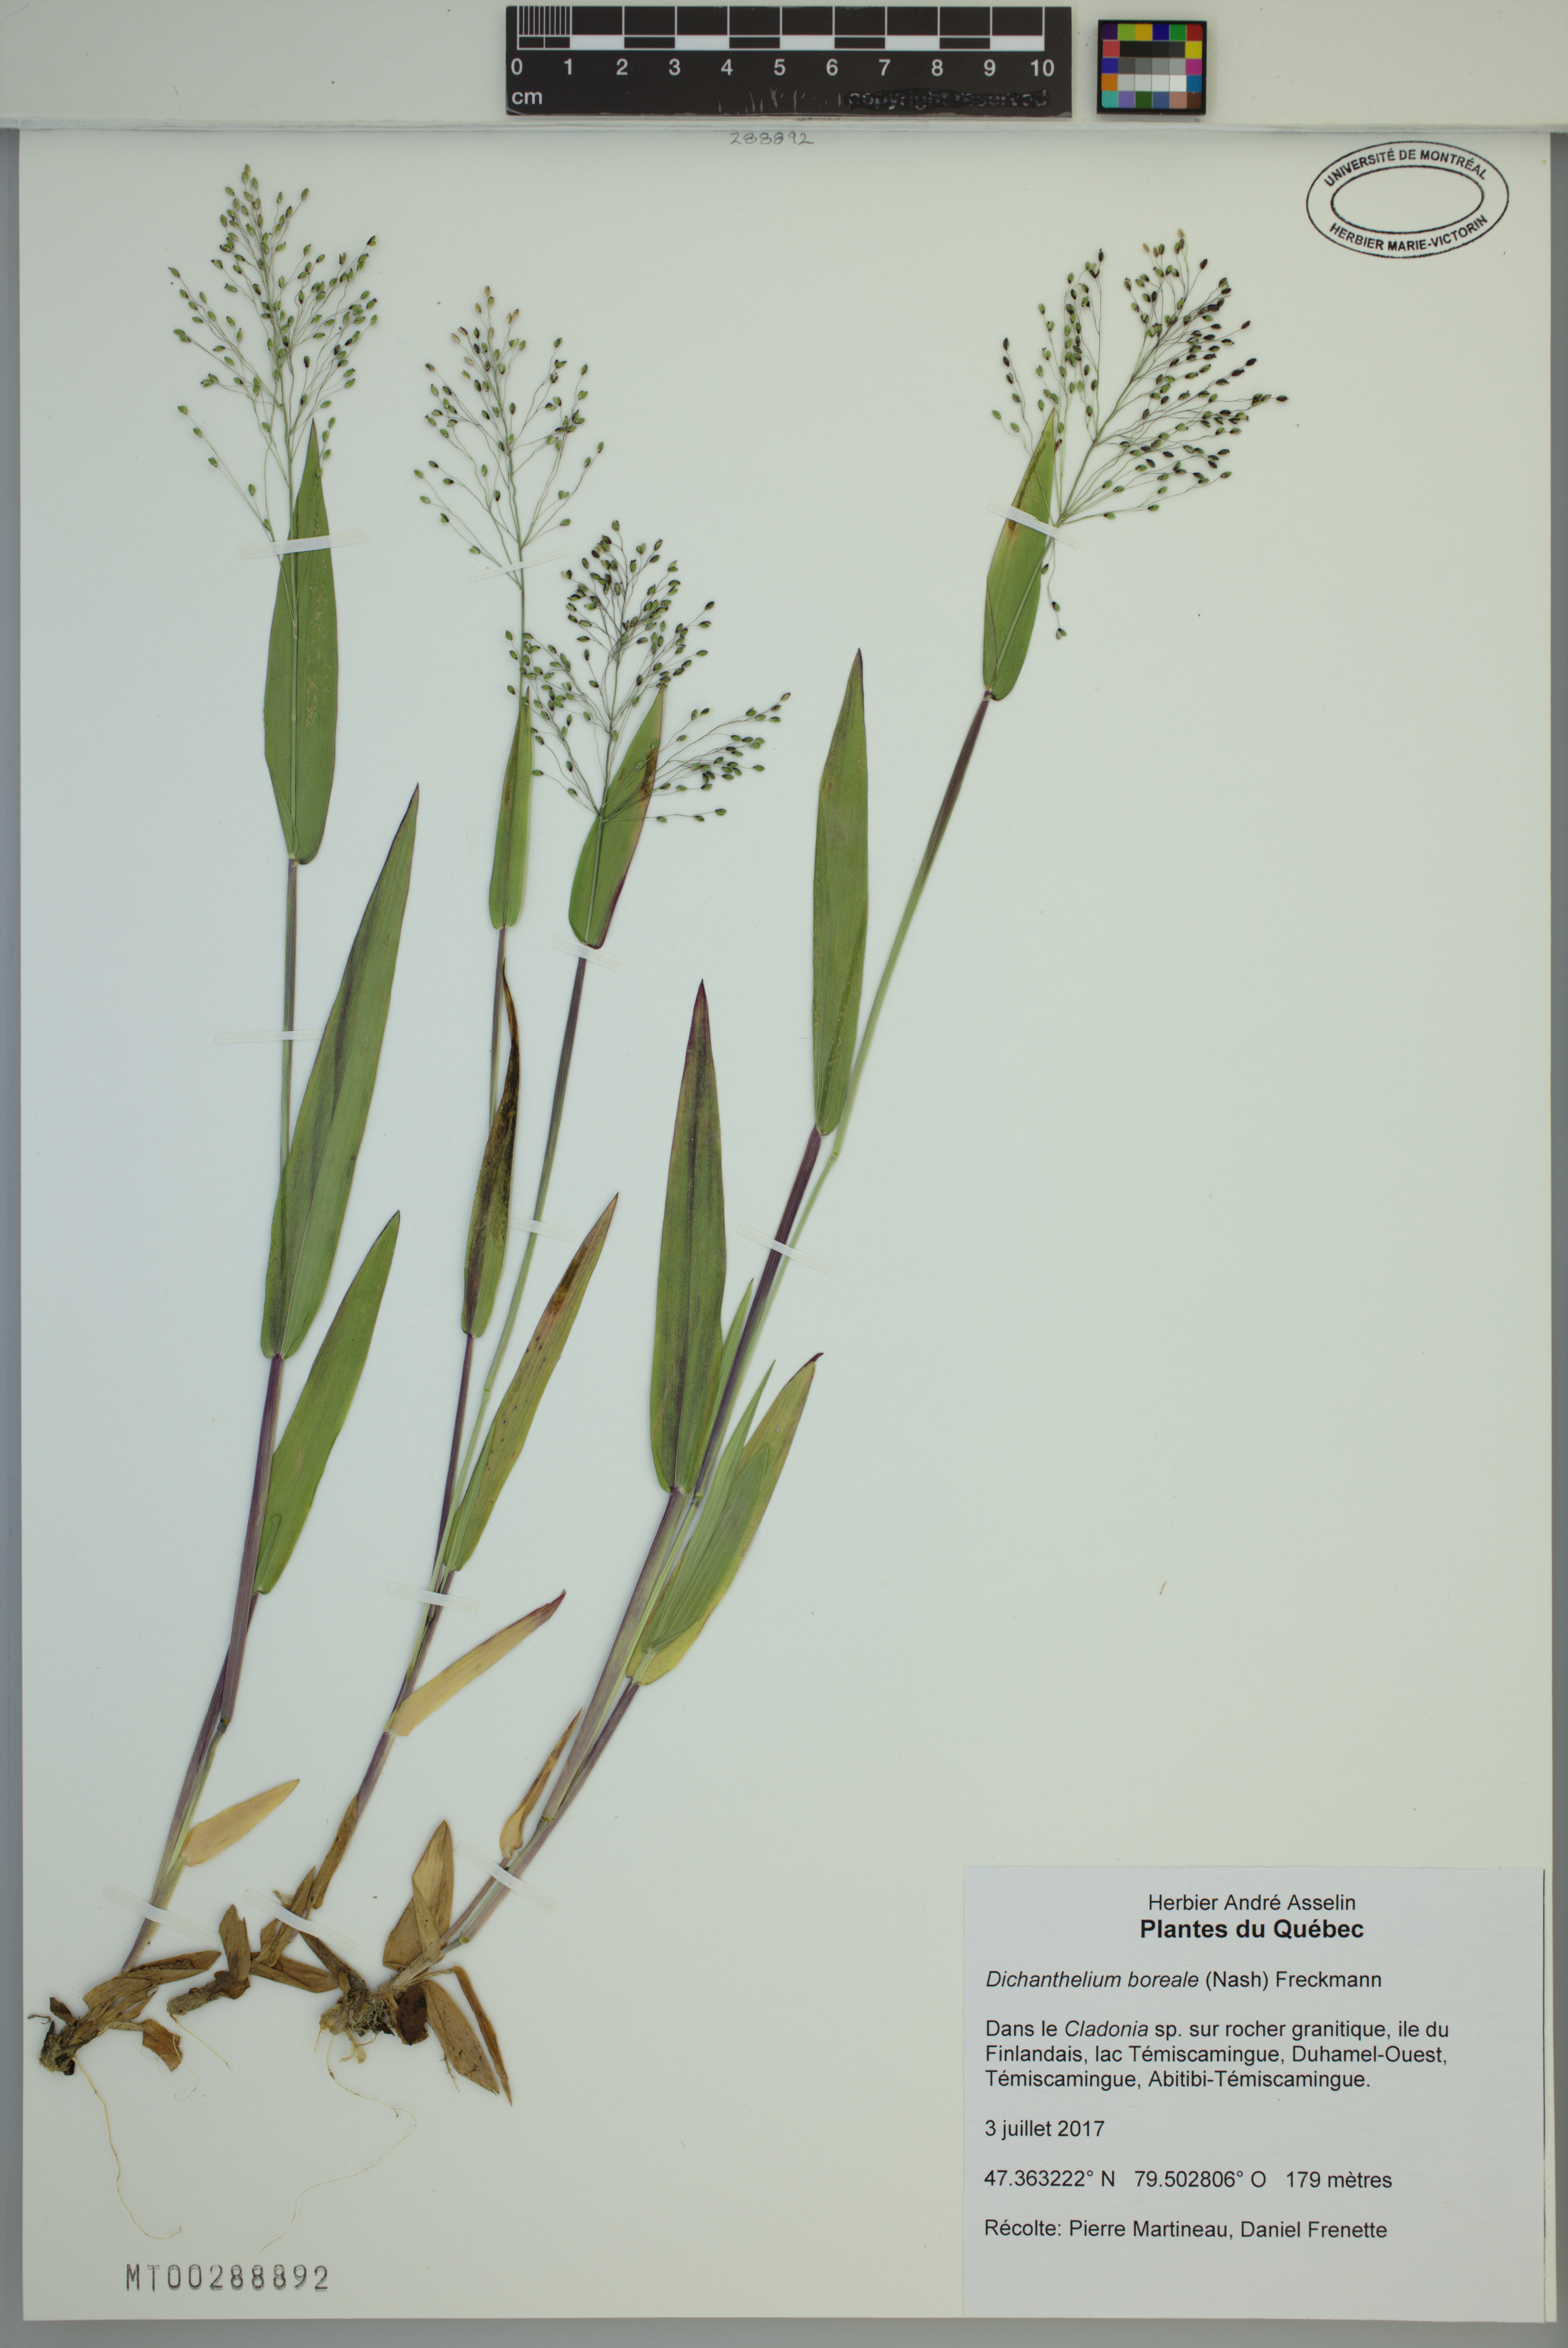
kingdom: Plantae
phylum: Tracheophyta
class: Liliopsida
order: Poales
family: Poaceae
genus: Dichanthelium
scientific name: Dichanthelium boreale
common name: Northern panicgrass
